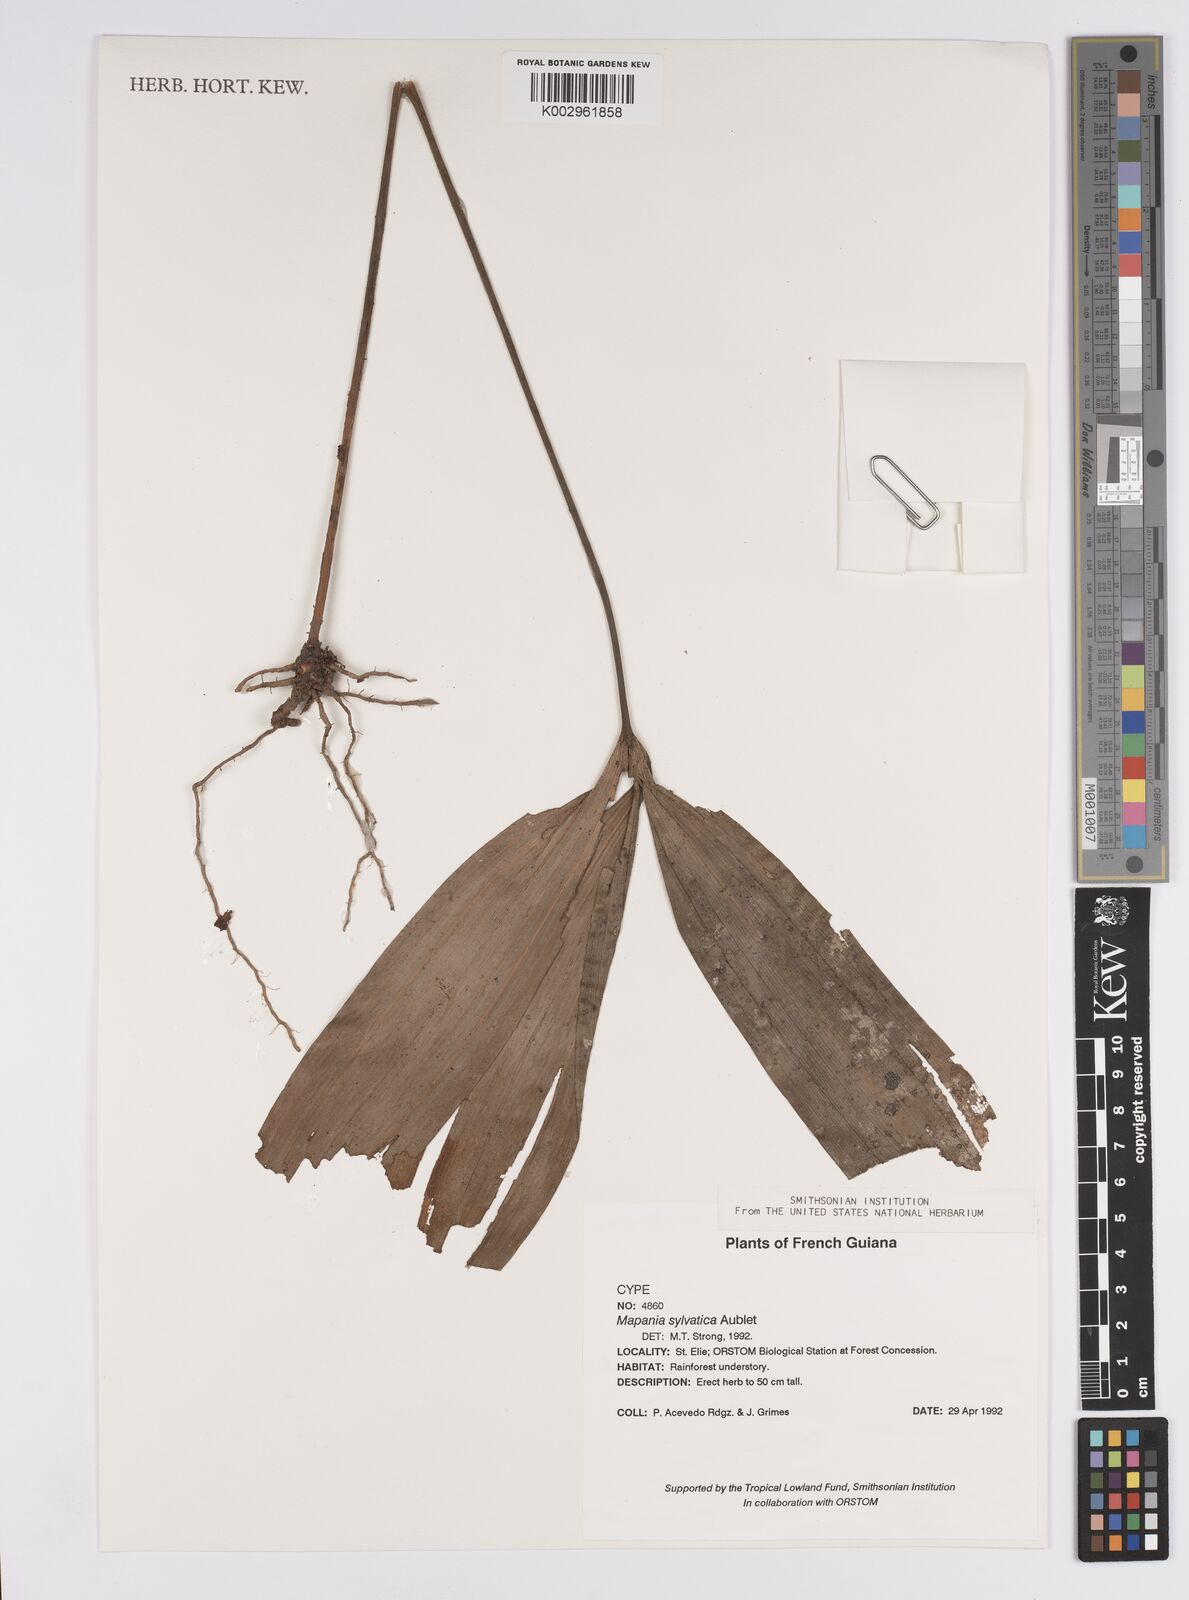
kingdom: Plantae
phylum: Tracheophyta
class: Liliopsida
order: Poales
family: Cyperaceae
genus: Mapania
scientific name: Mapania sylvatica
